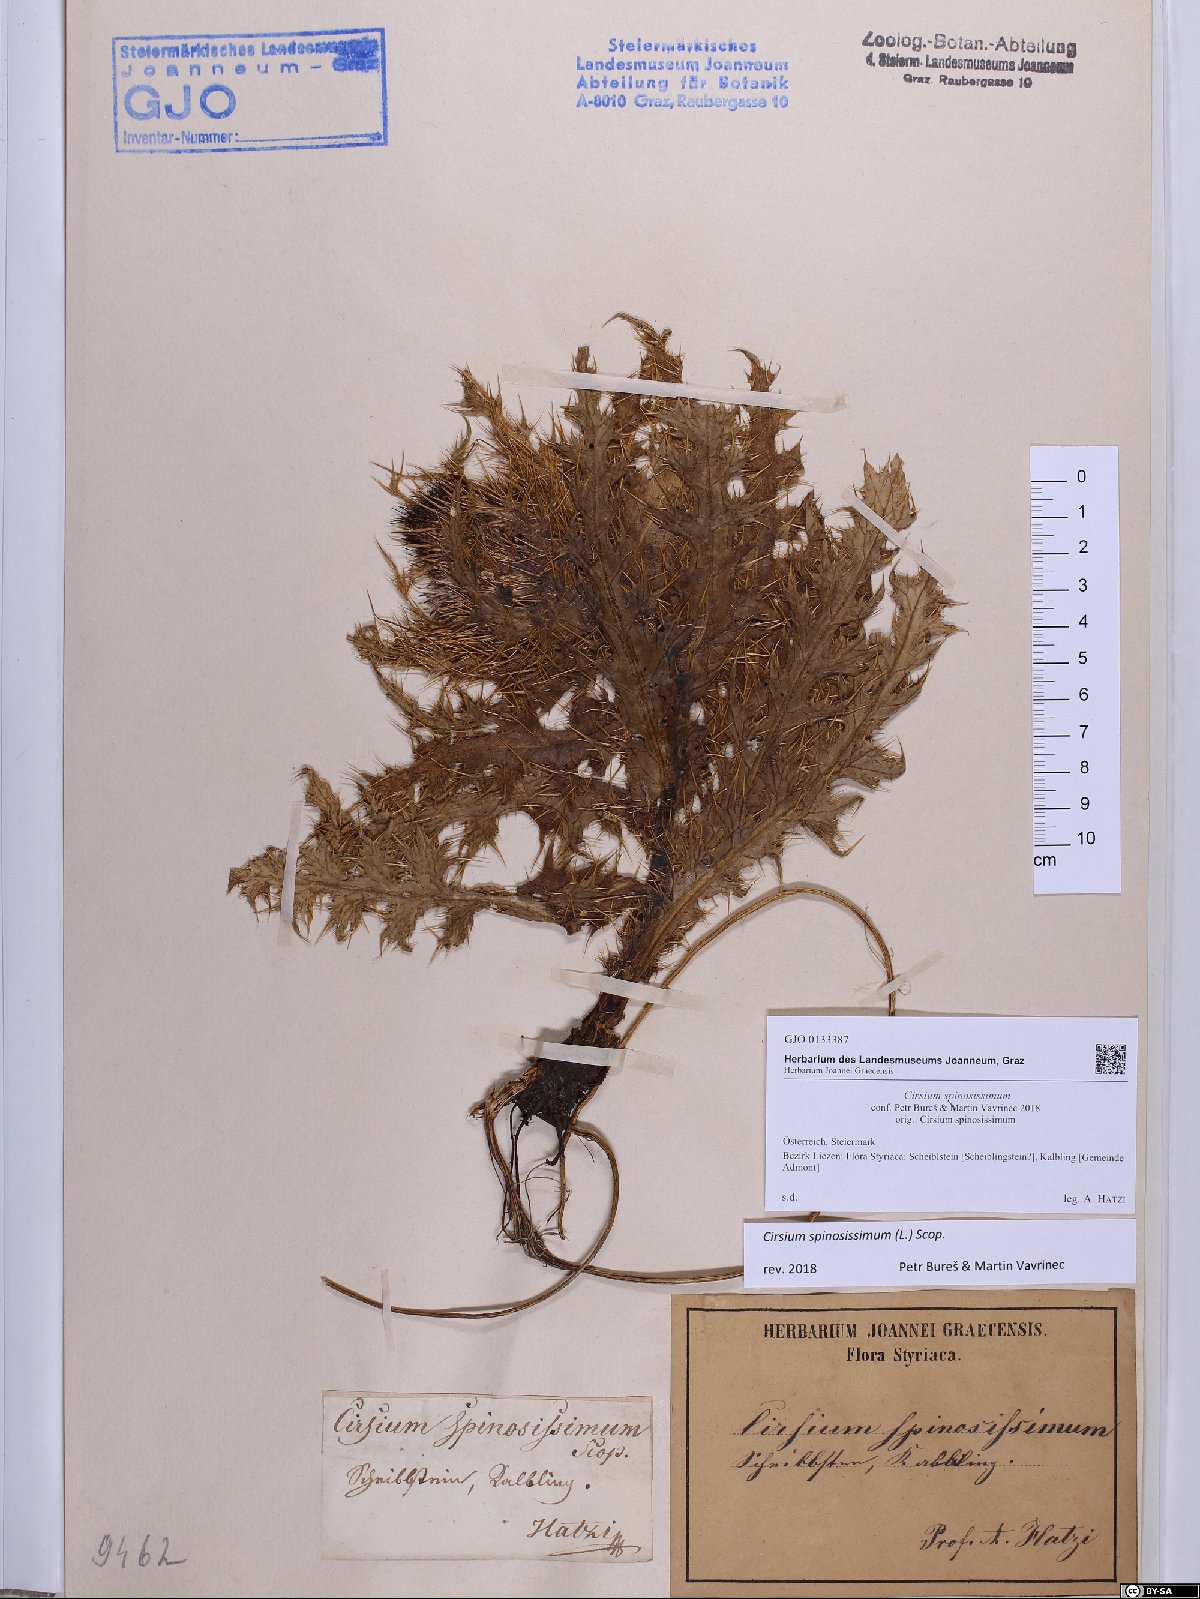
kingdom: Plantae
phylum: Tracheophyta
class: Magnoliopsida
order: Asterales
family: Asteraceae
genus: Cirsium
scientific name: Cirsium spinosissimum
